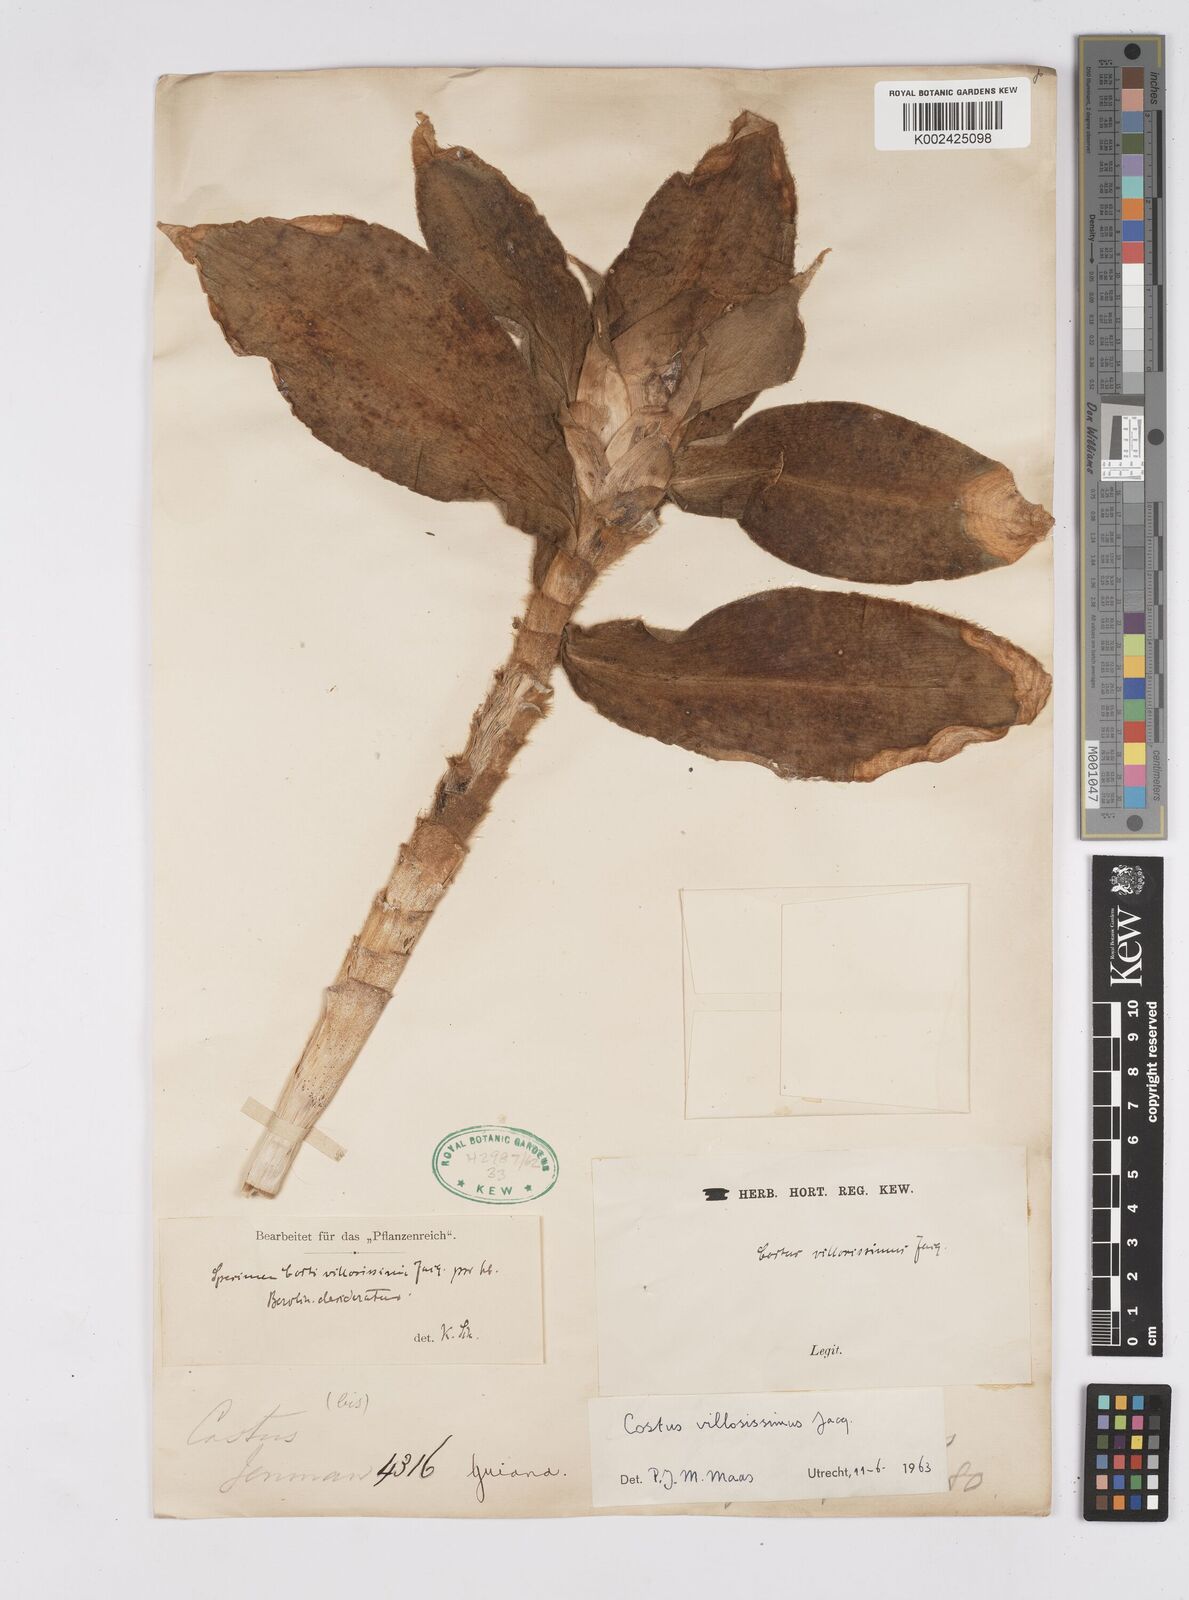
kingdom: Plantae
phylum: Tracheophyta
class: Liliopsida
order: Zingiberales
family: Costaceae
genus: Costus
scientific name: Costus villosissimus
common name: Spiral flag
